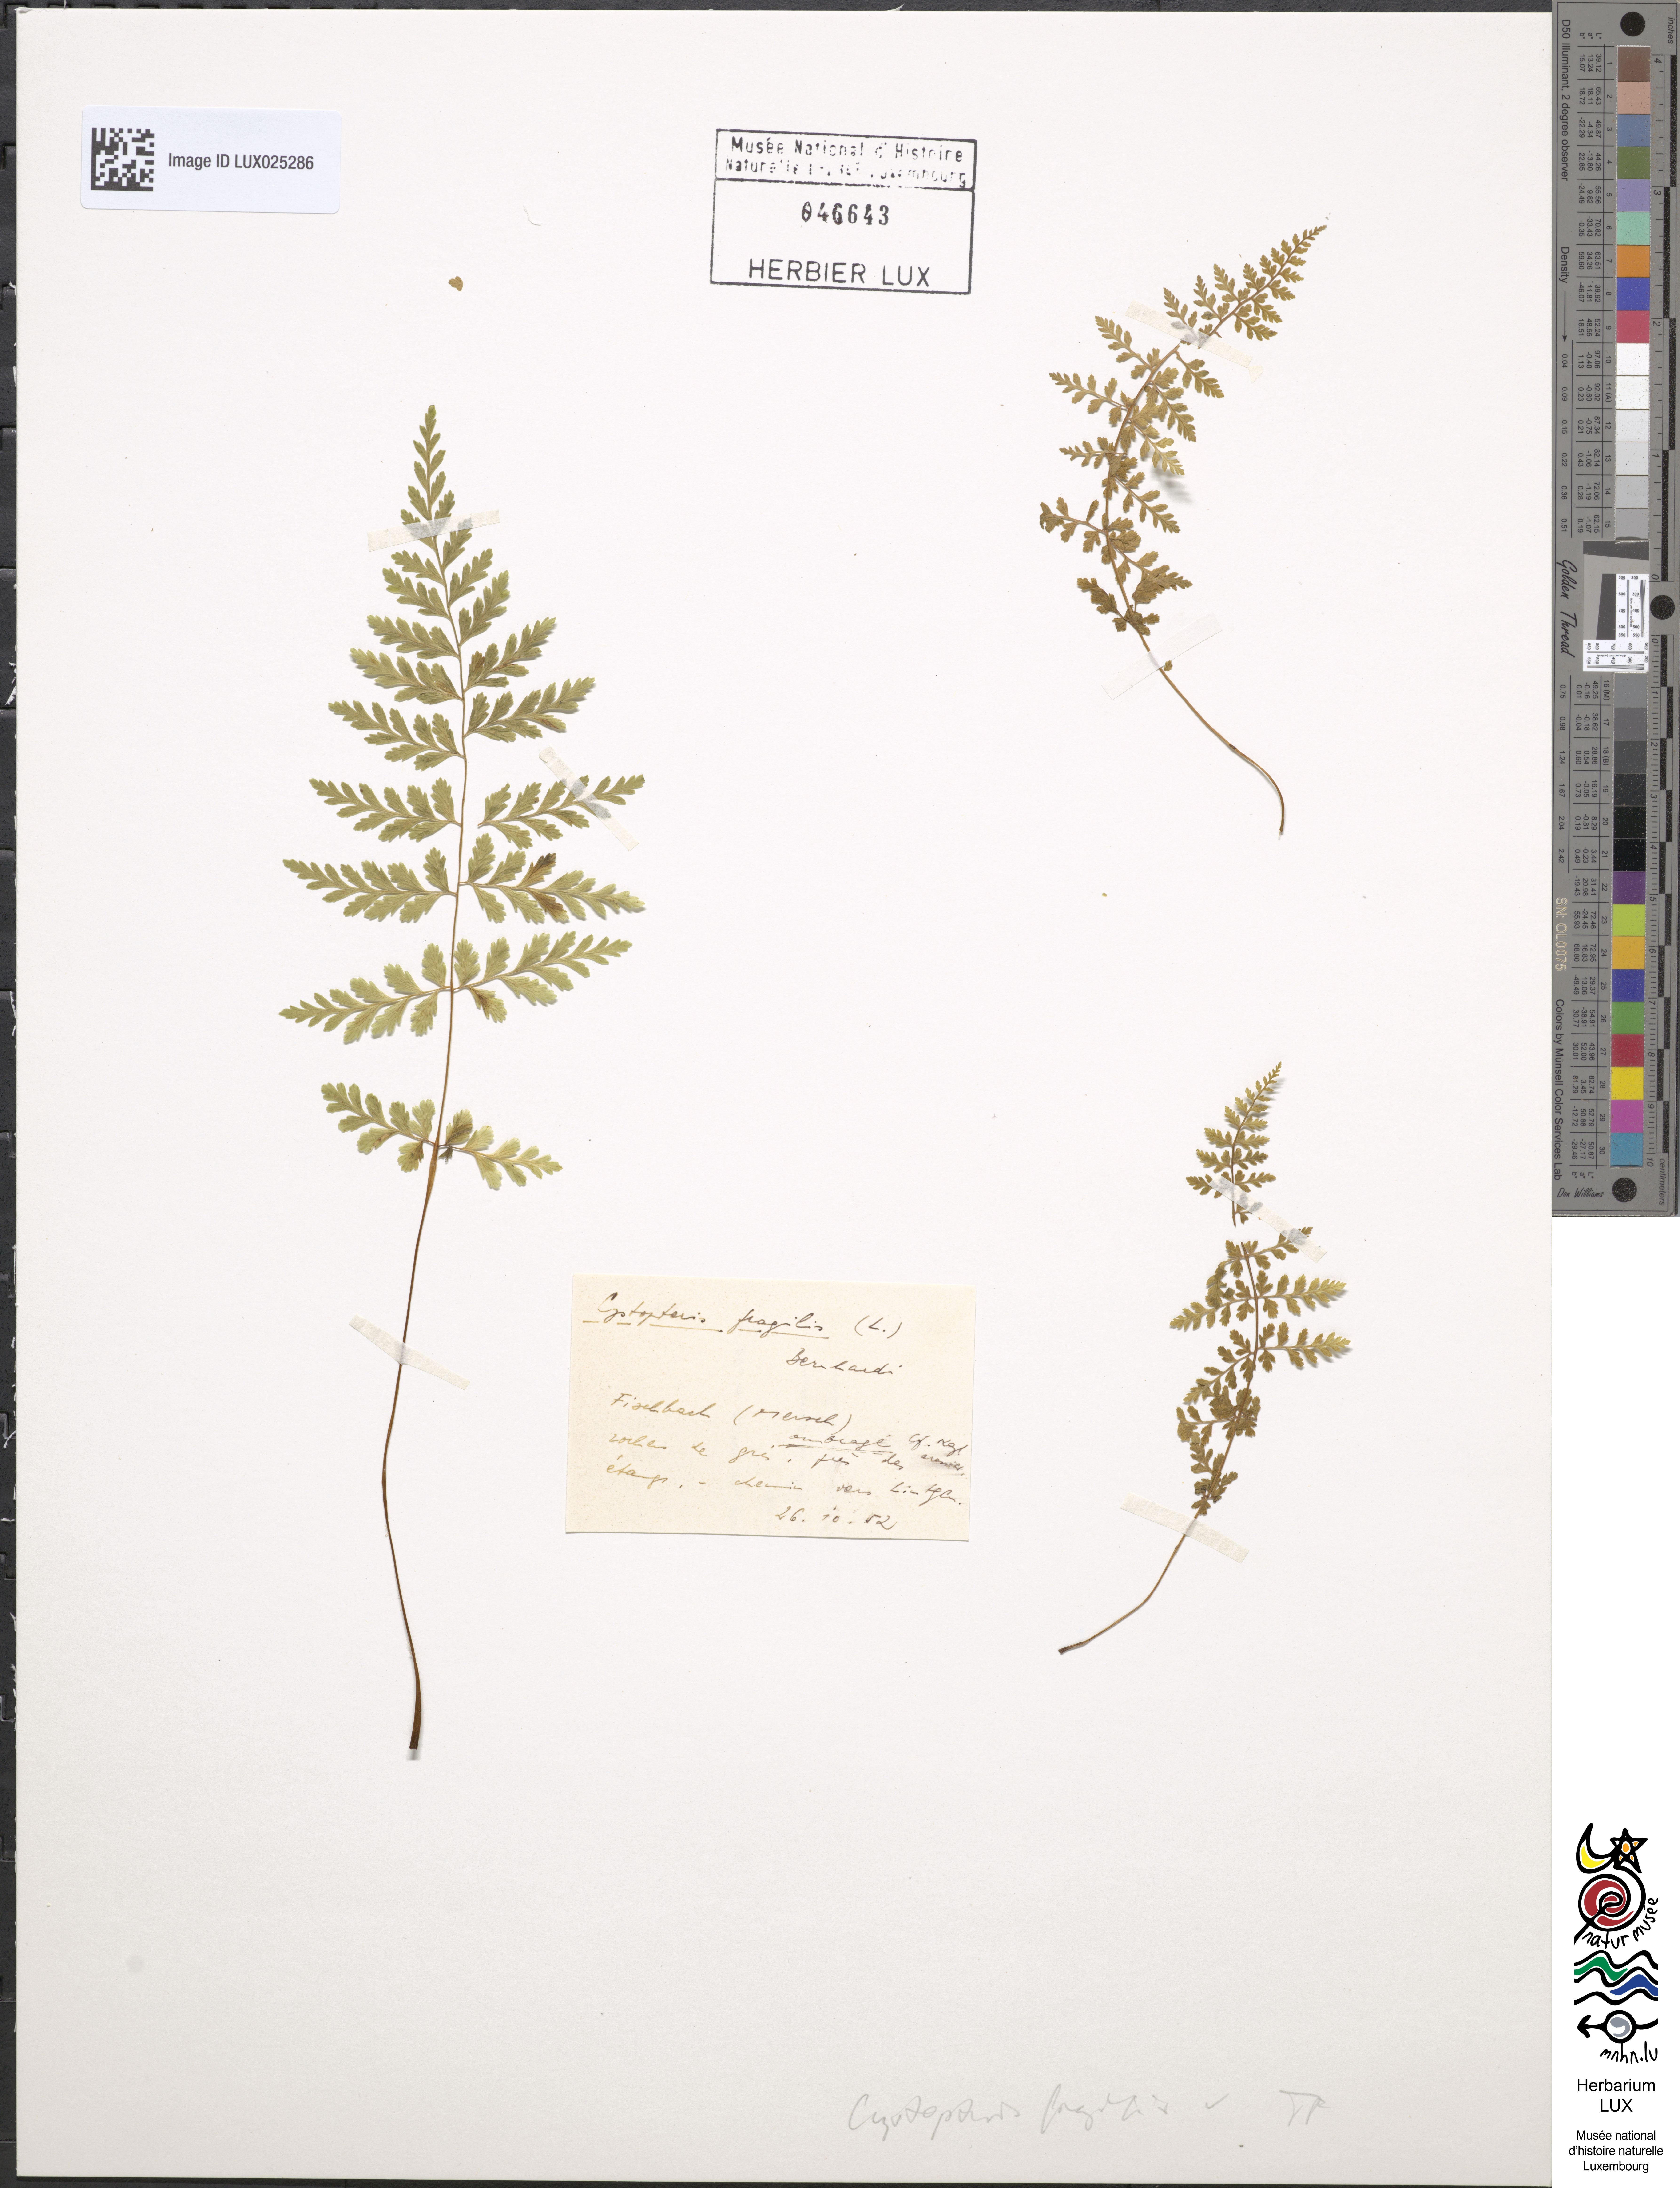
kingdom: Plantae
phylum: Tracheophyta
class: Polypodiopsida
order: Polypodiales
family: Cystopteridaceae
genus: Cystopteris
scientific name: Cystopteris fragilis
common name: Brittle bladder fern
